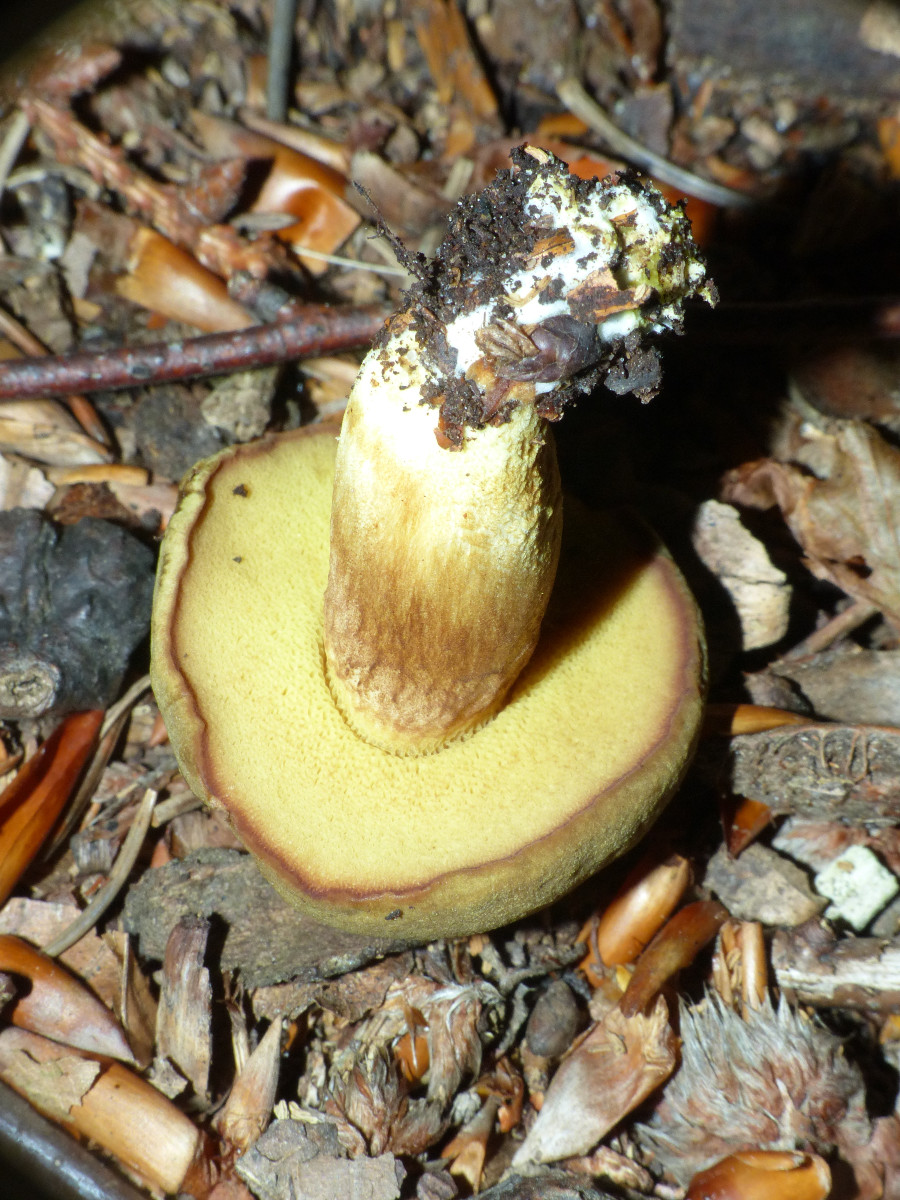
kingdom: Fungi
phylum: Basidiomycota
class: Agaricomycetes
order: Boletales
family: Boletaceae
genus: Xerocomus
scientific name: Xerocomus subtomentosus
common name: filtet rørhat
